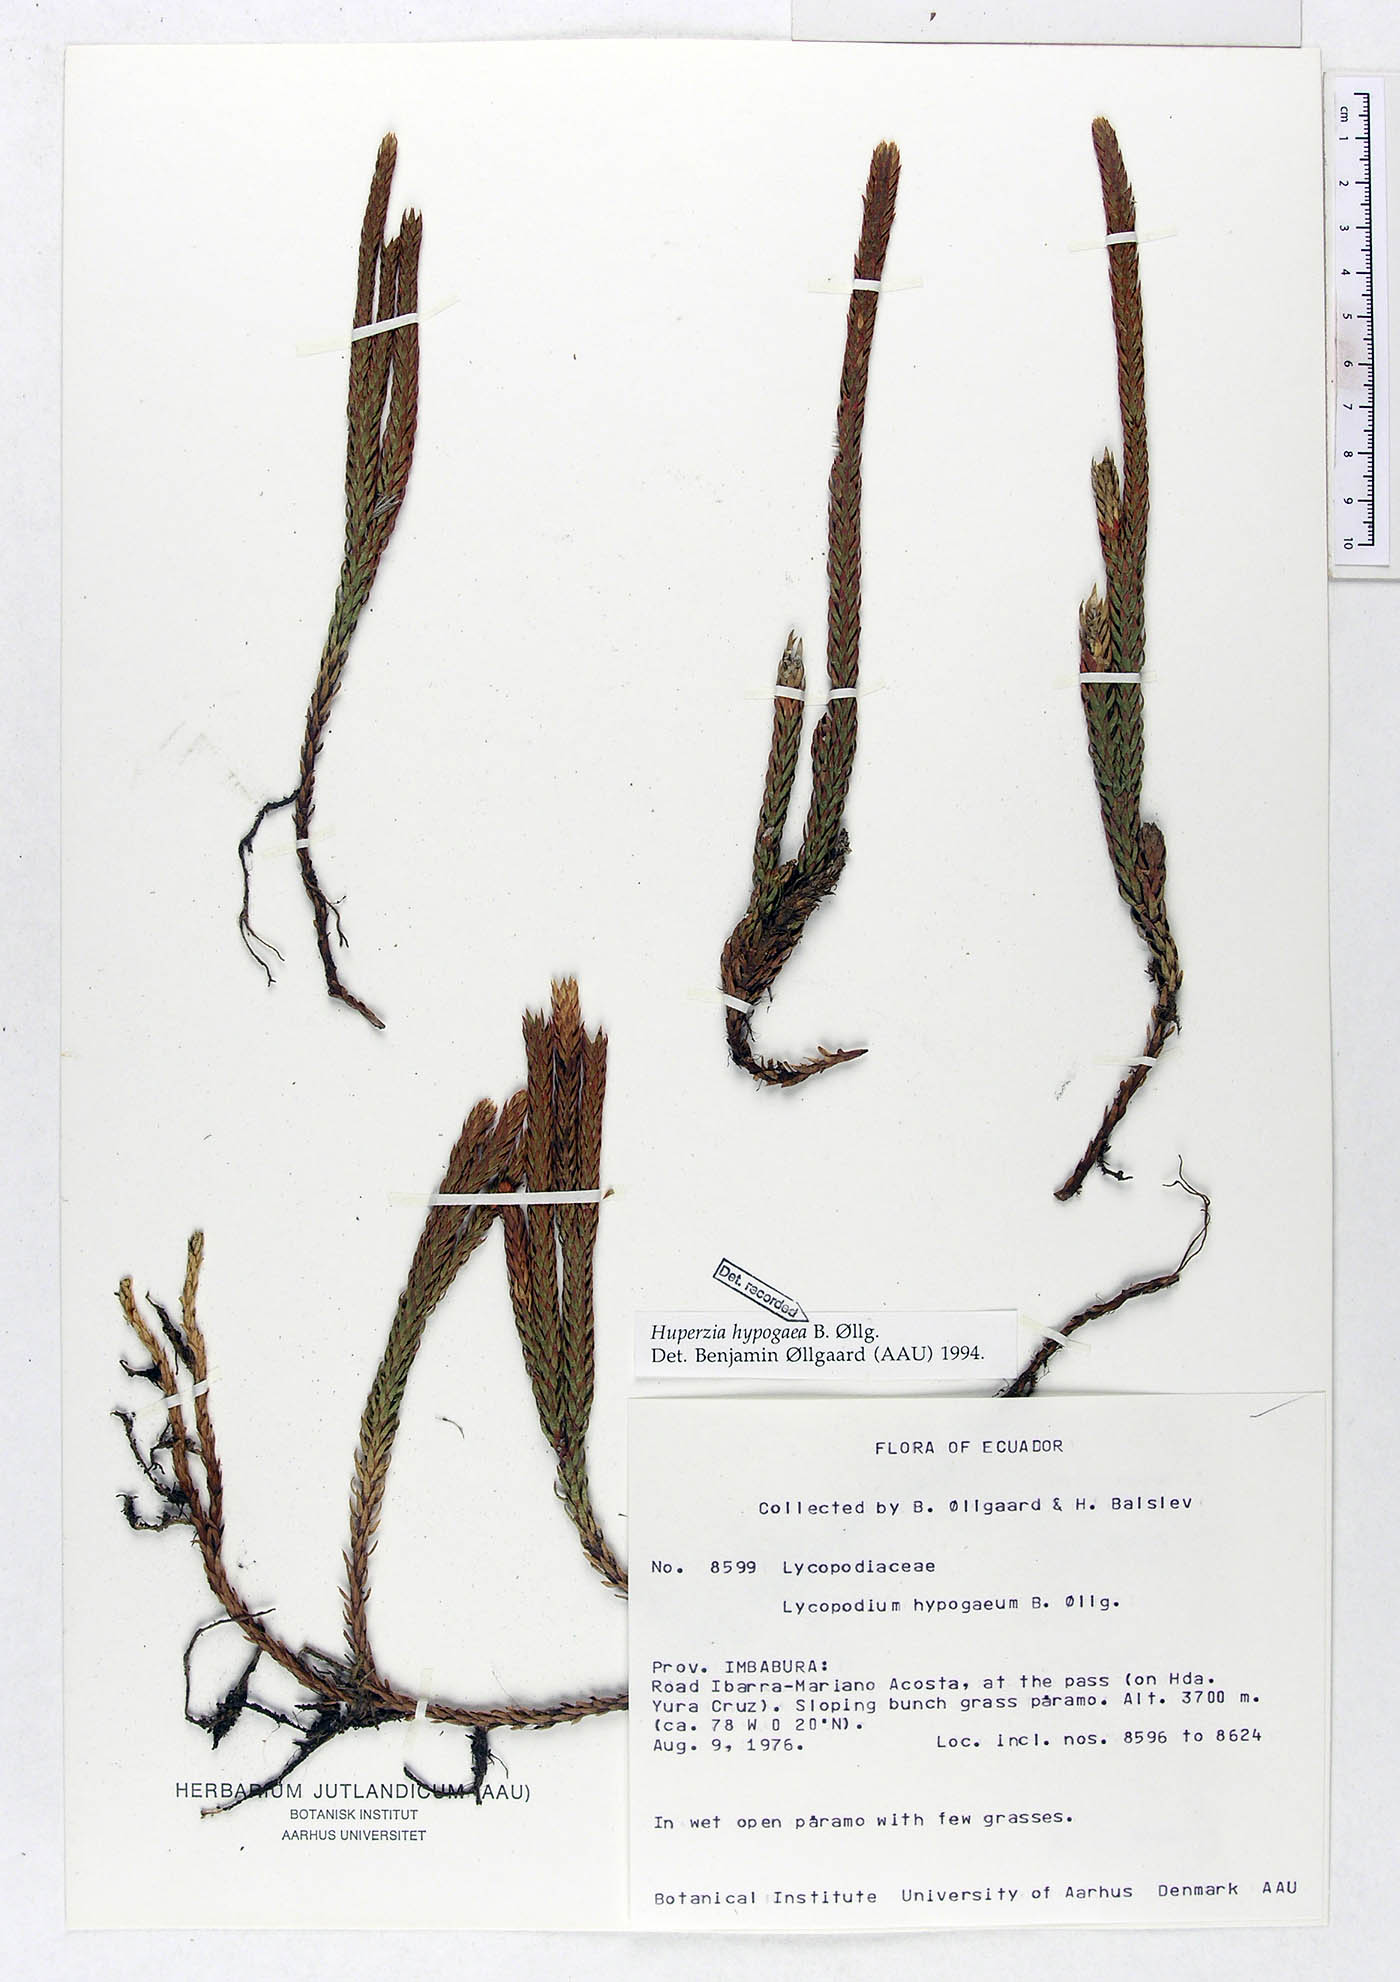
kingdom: Plantae
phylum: Tracheophyta
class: Lycopodiopsida
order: Lycopodiales
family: Lycopodiaceae
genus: Phlegmariurus
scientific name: Phlegmariurus hypogaeus
